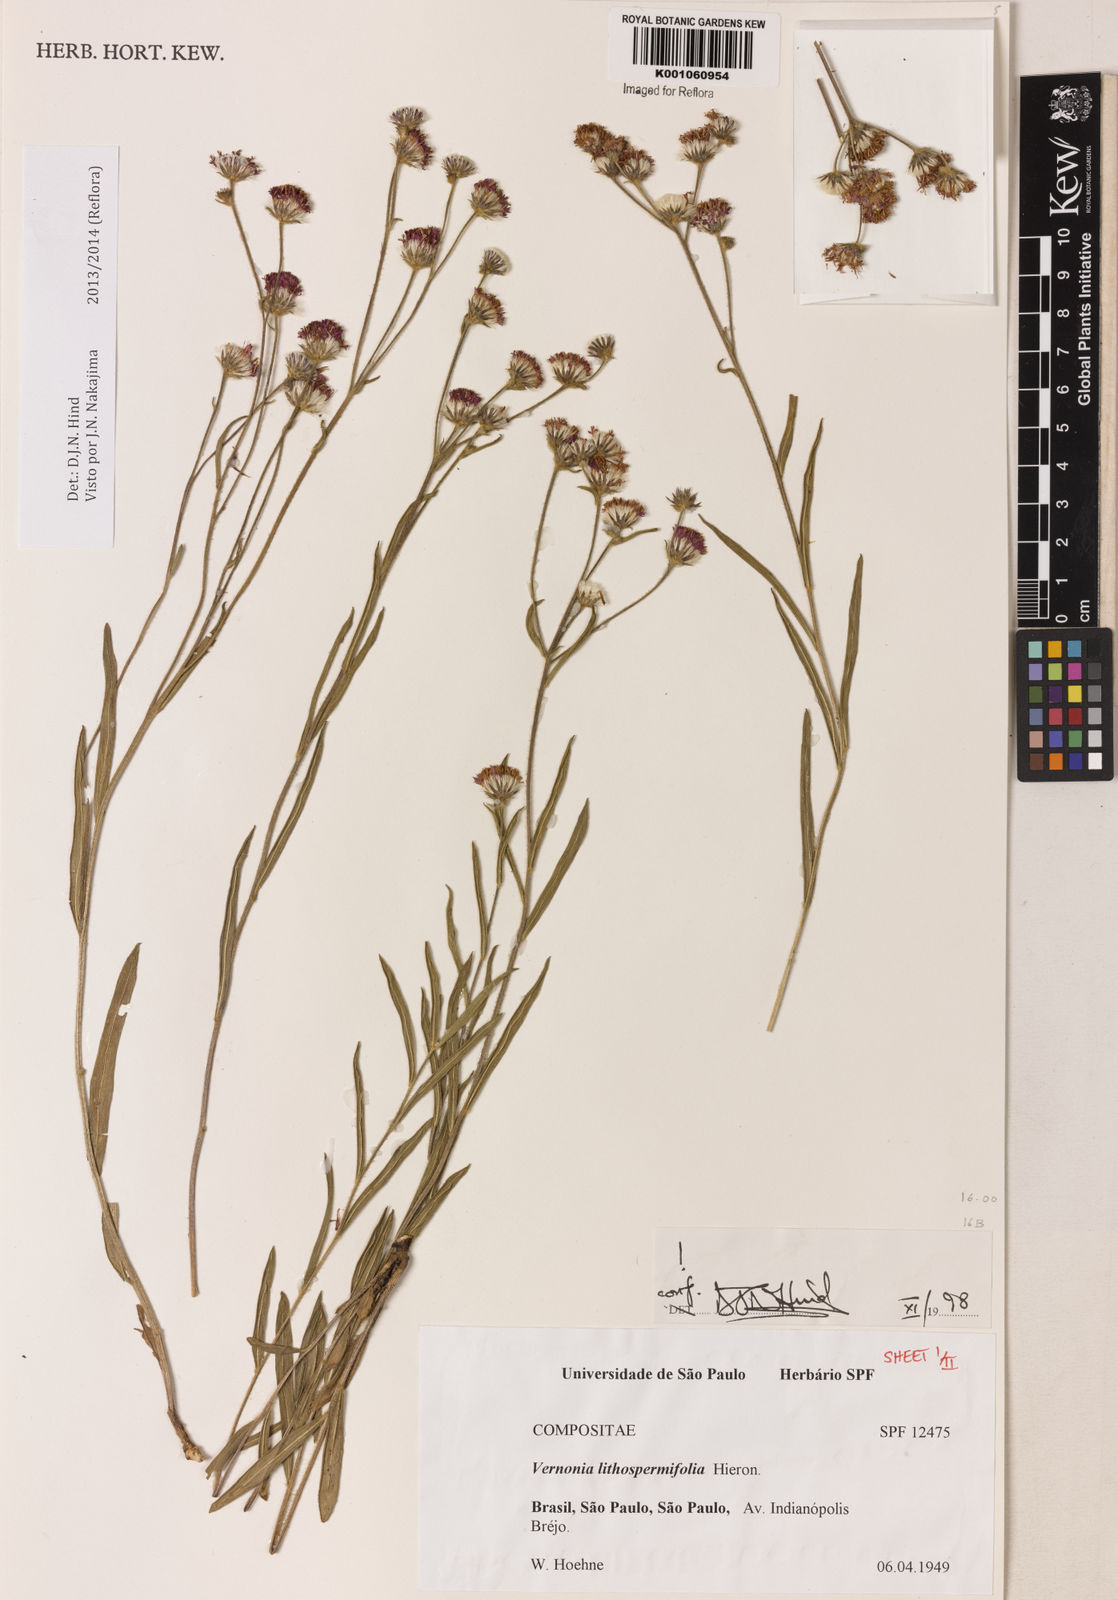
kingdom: Plantae
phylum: Tracheophyta
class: Magnoliopsida
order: Asterales
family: Asteraceae
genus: Chrysolaena
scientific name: Chrysolaena lithospermifolia
